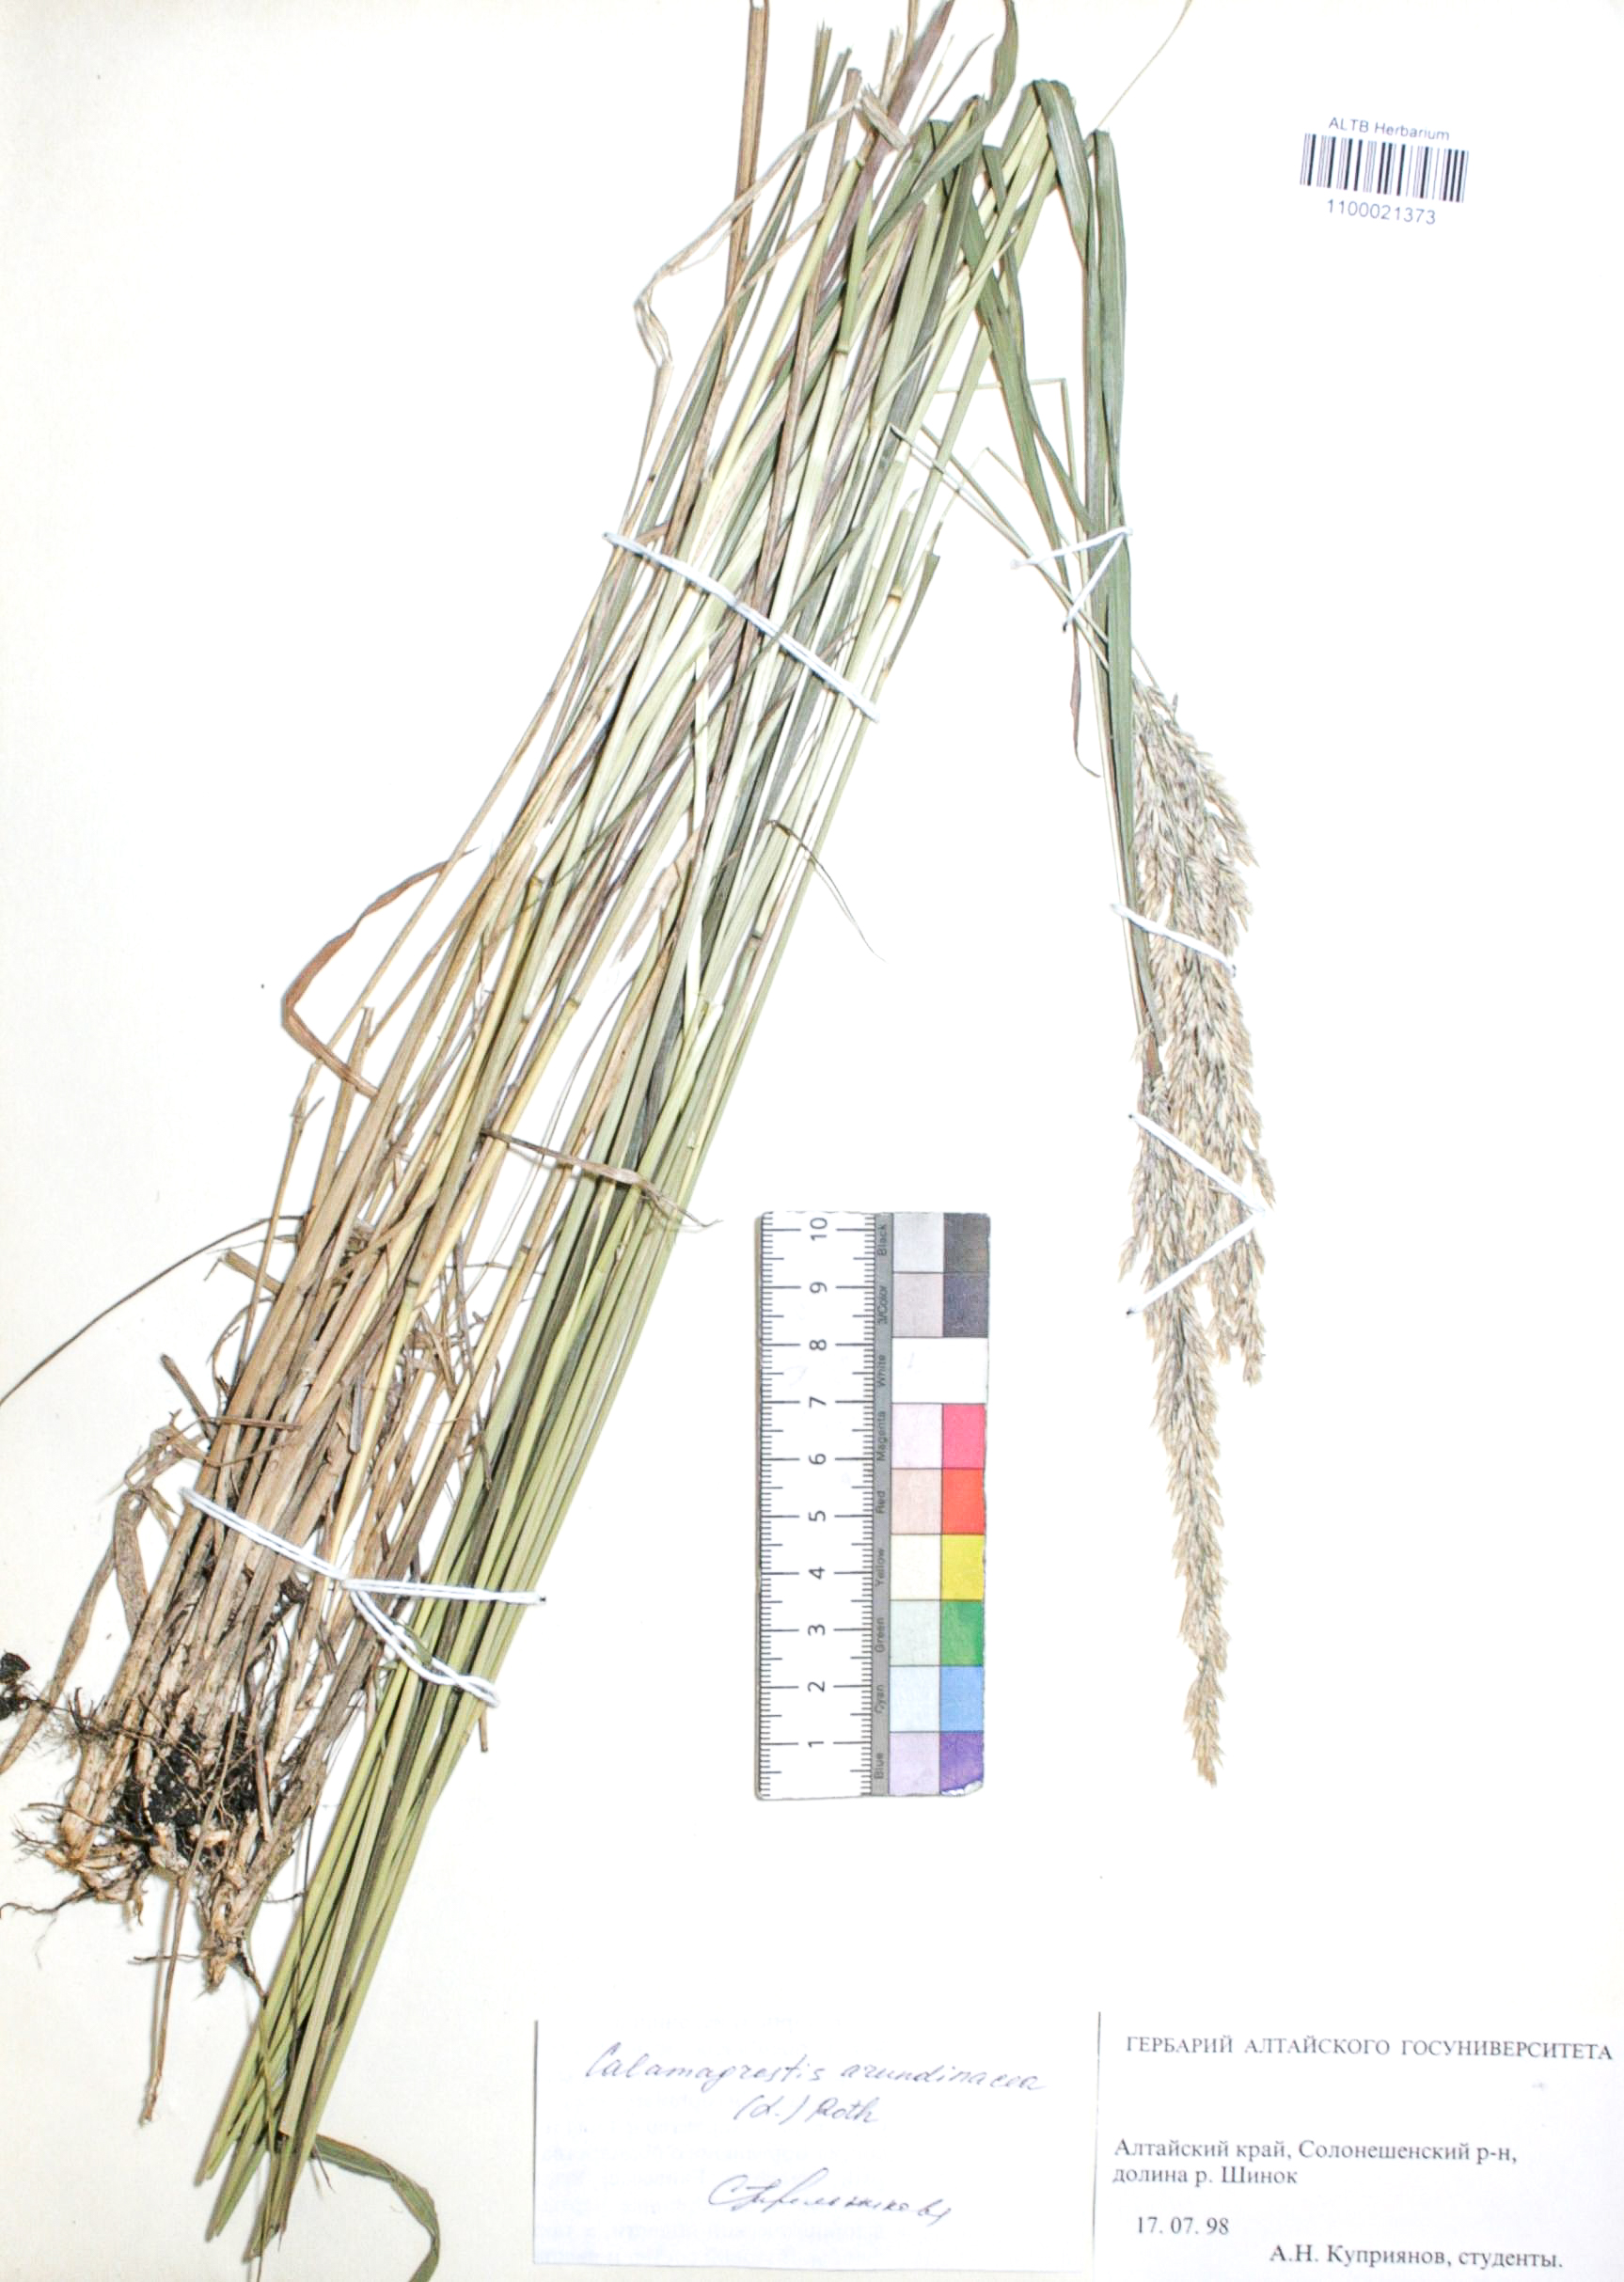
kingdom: Plantae
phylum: Tracheophyta
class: Liliopsida
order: Poales
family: Poaceae
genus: Calamagrostis
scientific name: Calamagrostis arundinacea
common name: Metskastik
